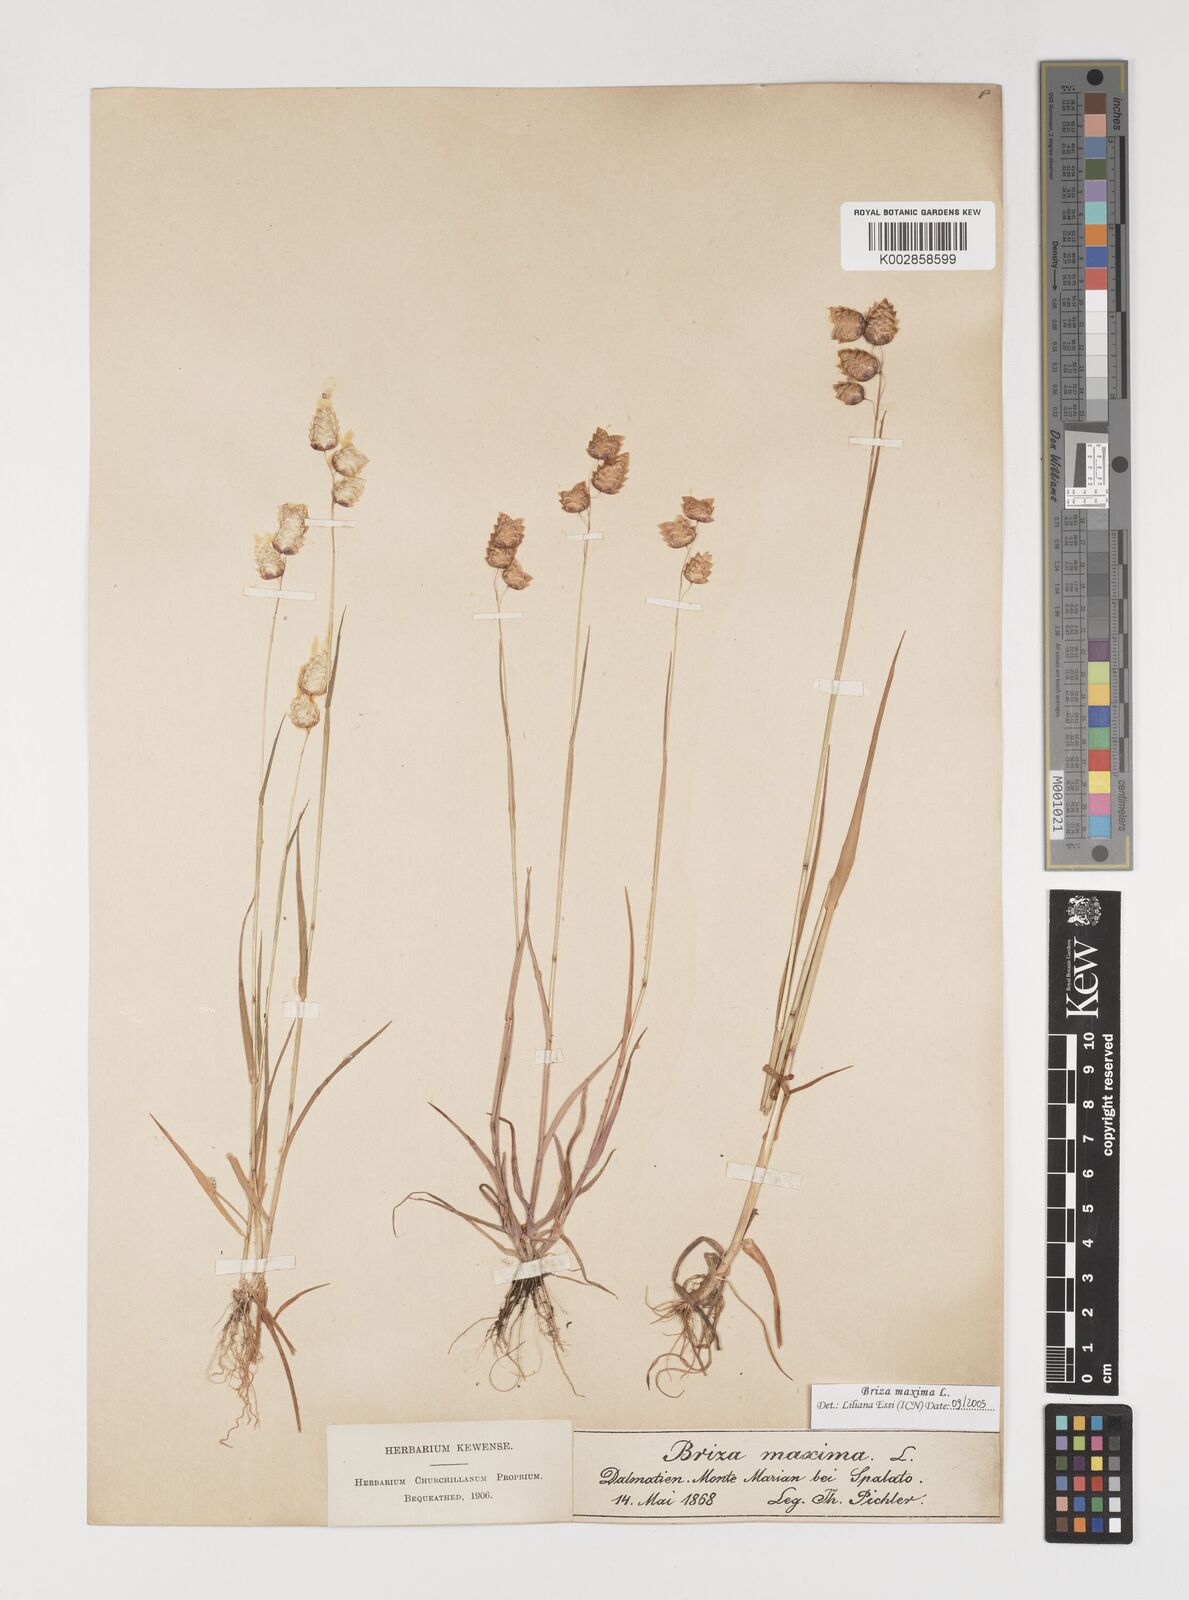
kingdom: Plantae
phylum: Tracheophyta
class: Liliopsida
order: Poales
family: Poaceae
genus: Briza
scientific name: Briza maxima
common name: Big quakinggrass
